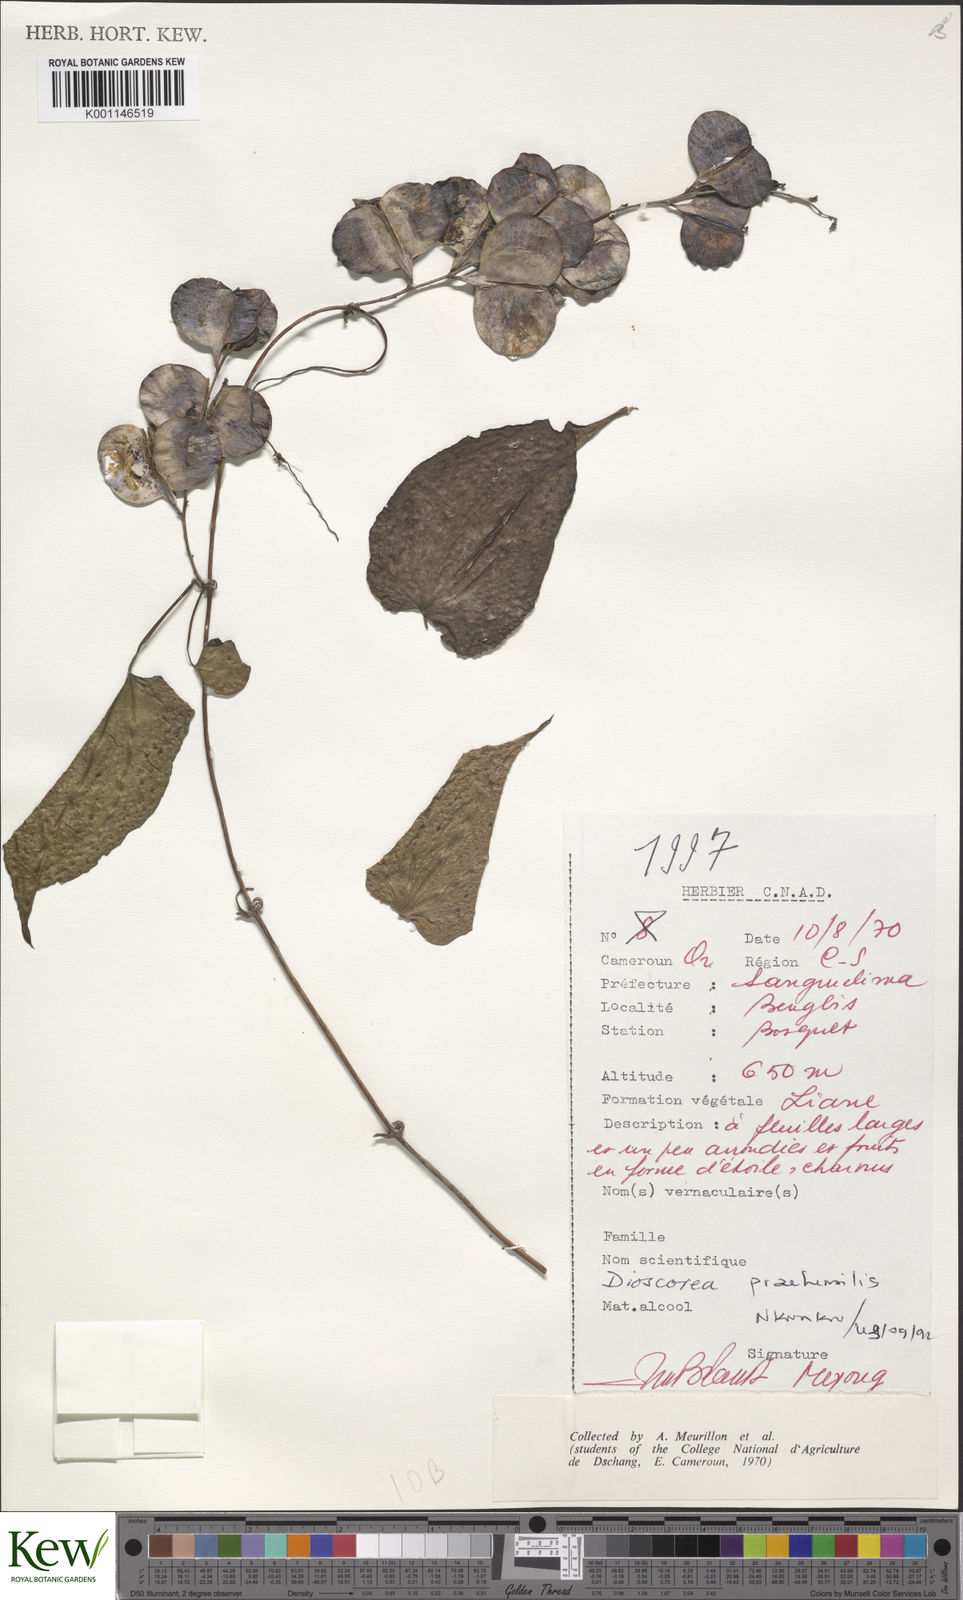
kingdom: Plantae
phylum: Tracheophyta
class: Liliopsida
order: Dioscoreales
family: Dioscoreaceae
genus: Dioscorea
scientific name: Dioscorea
